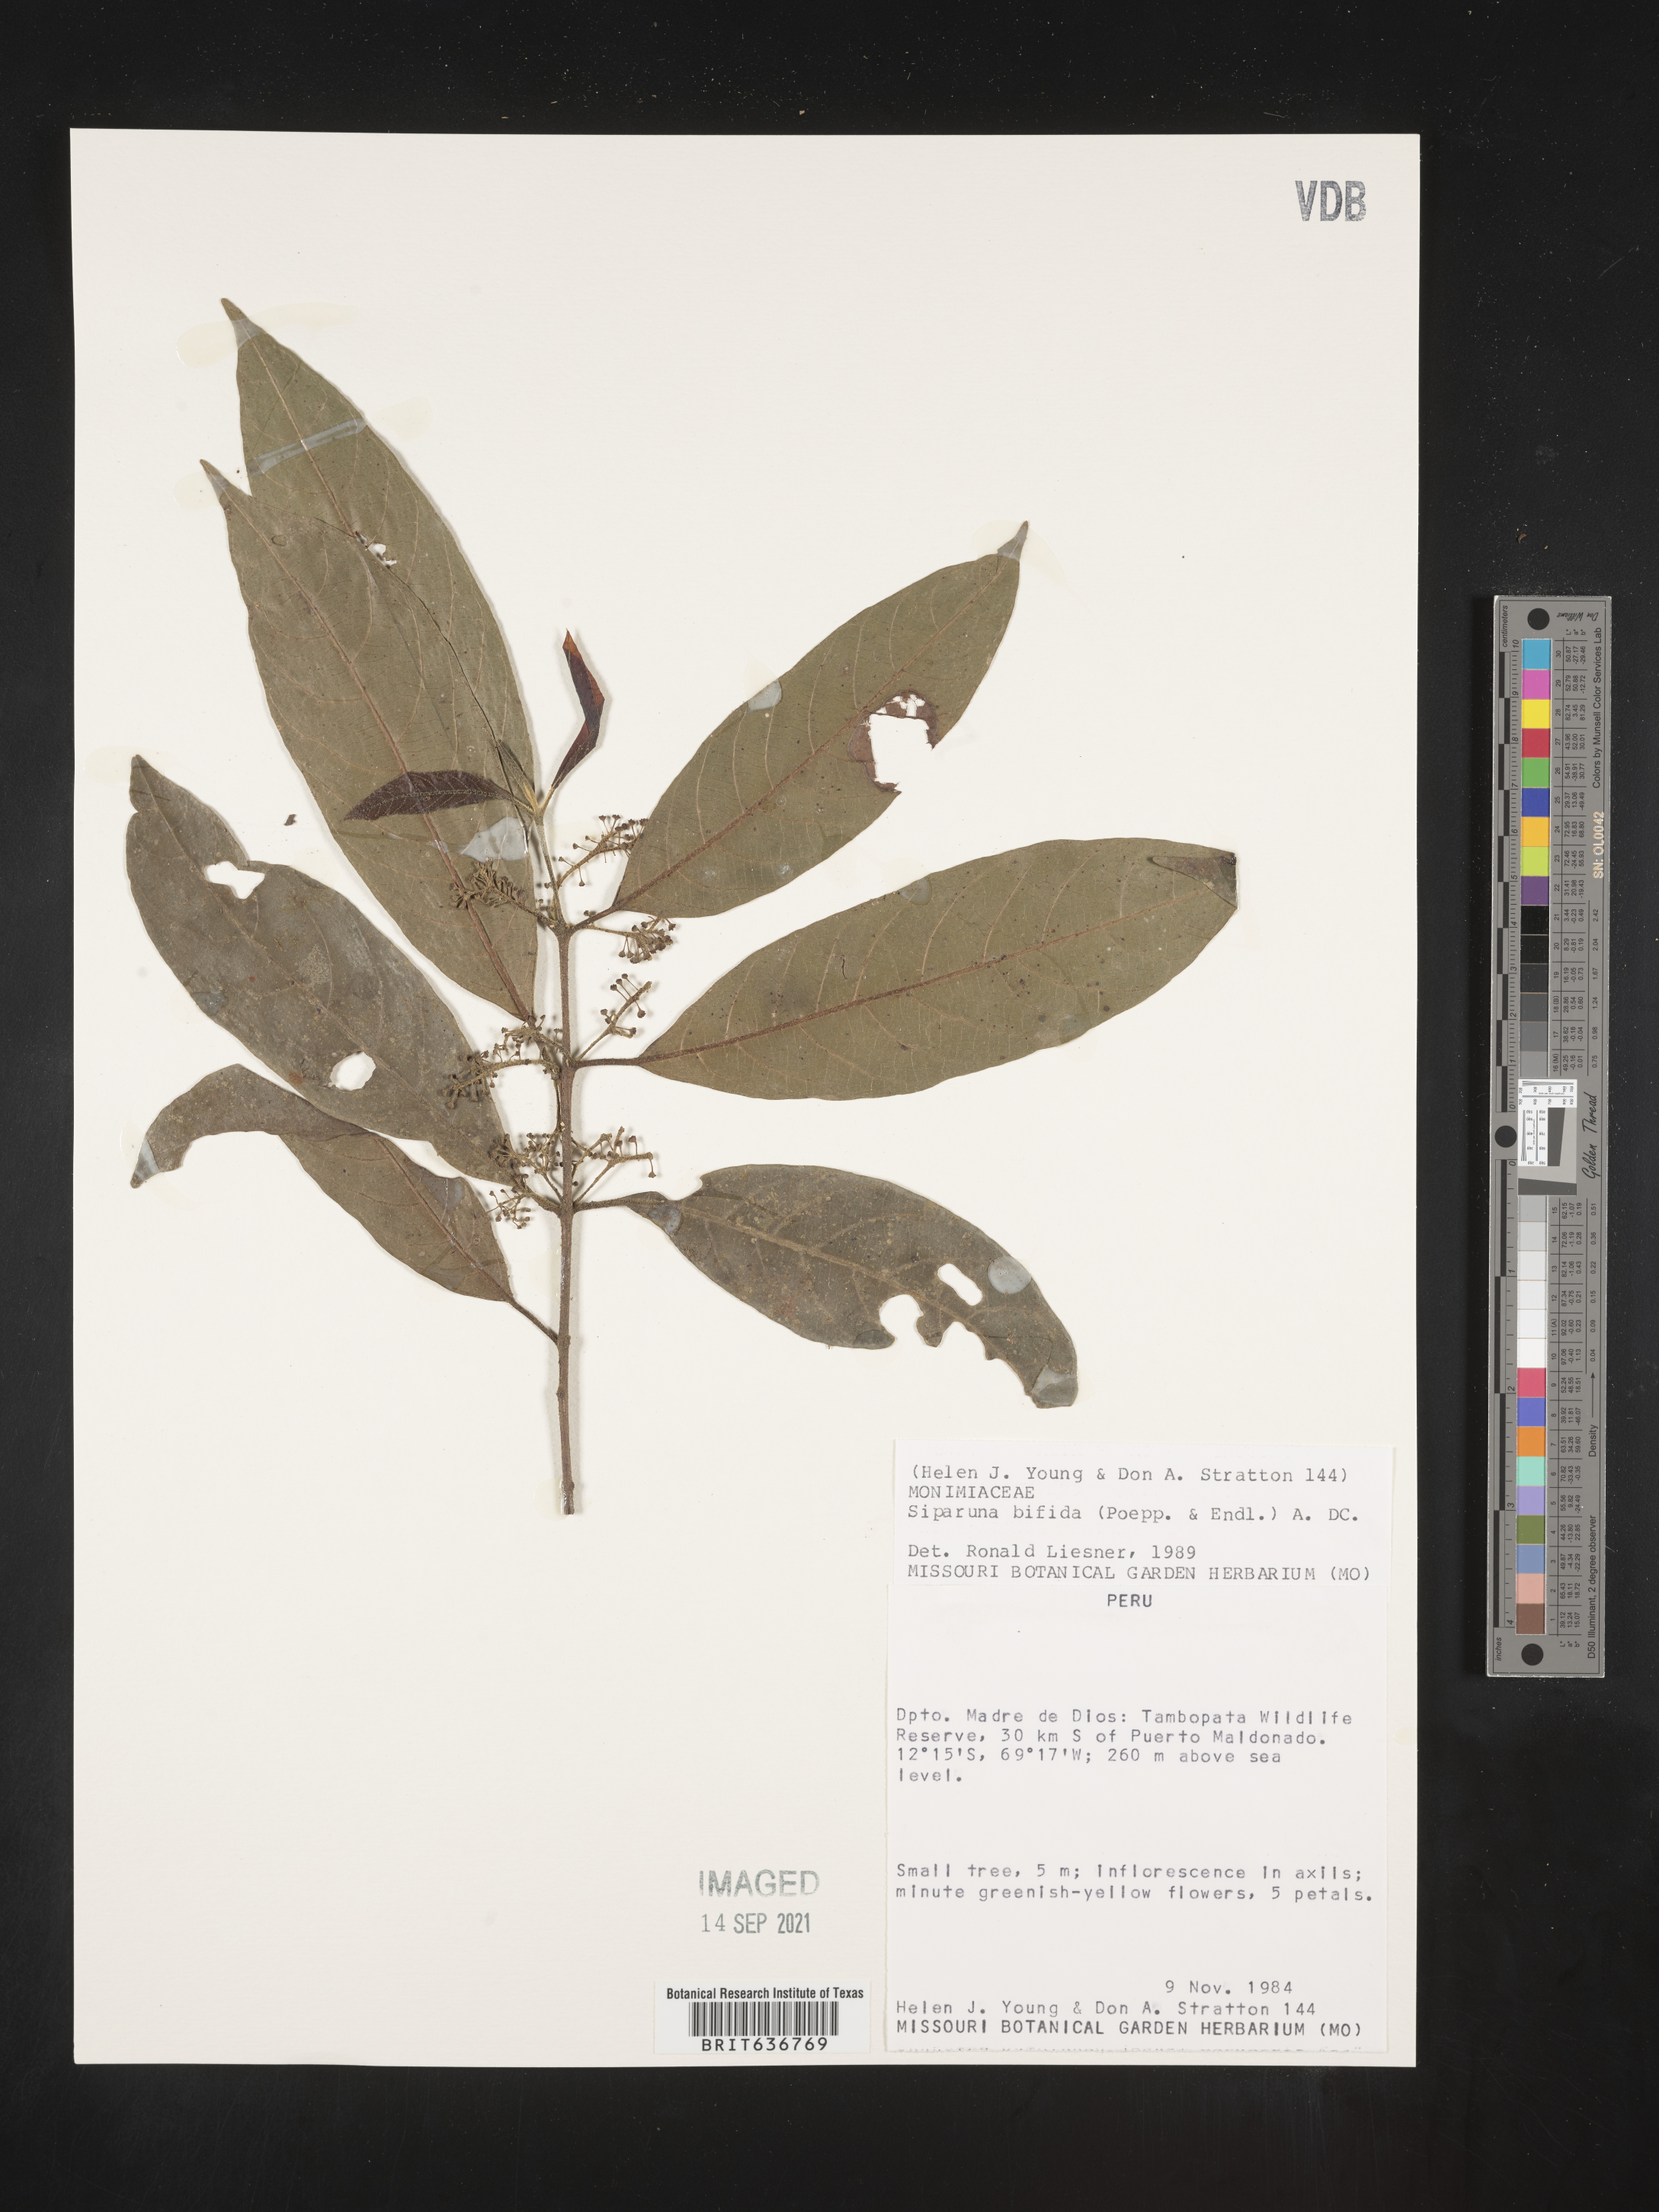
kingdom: Plantae
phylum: Tracheophyta
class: Magnoliopsida
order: Laurales
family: Siparunaceae
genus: Siparuna
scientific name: Siparuna
